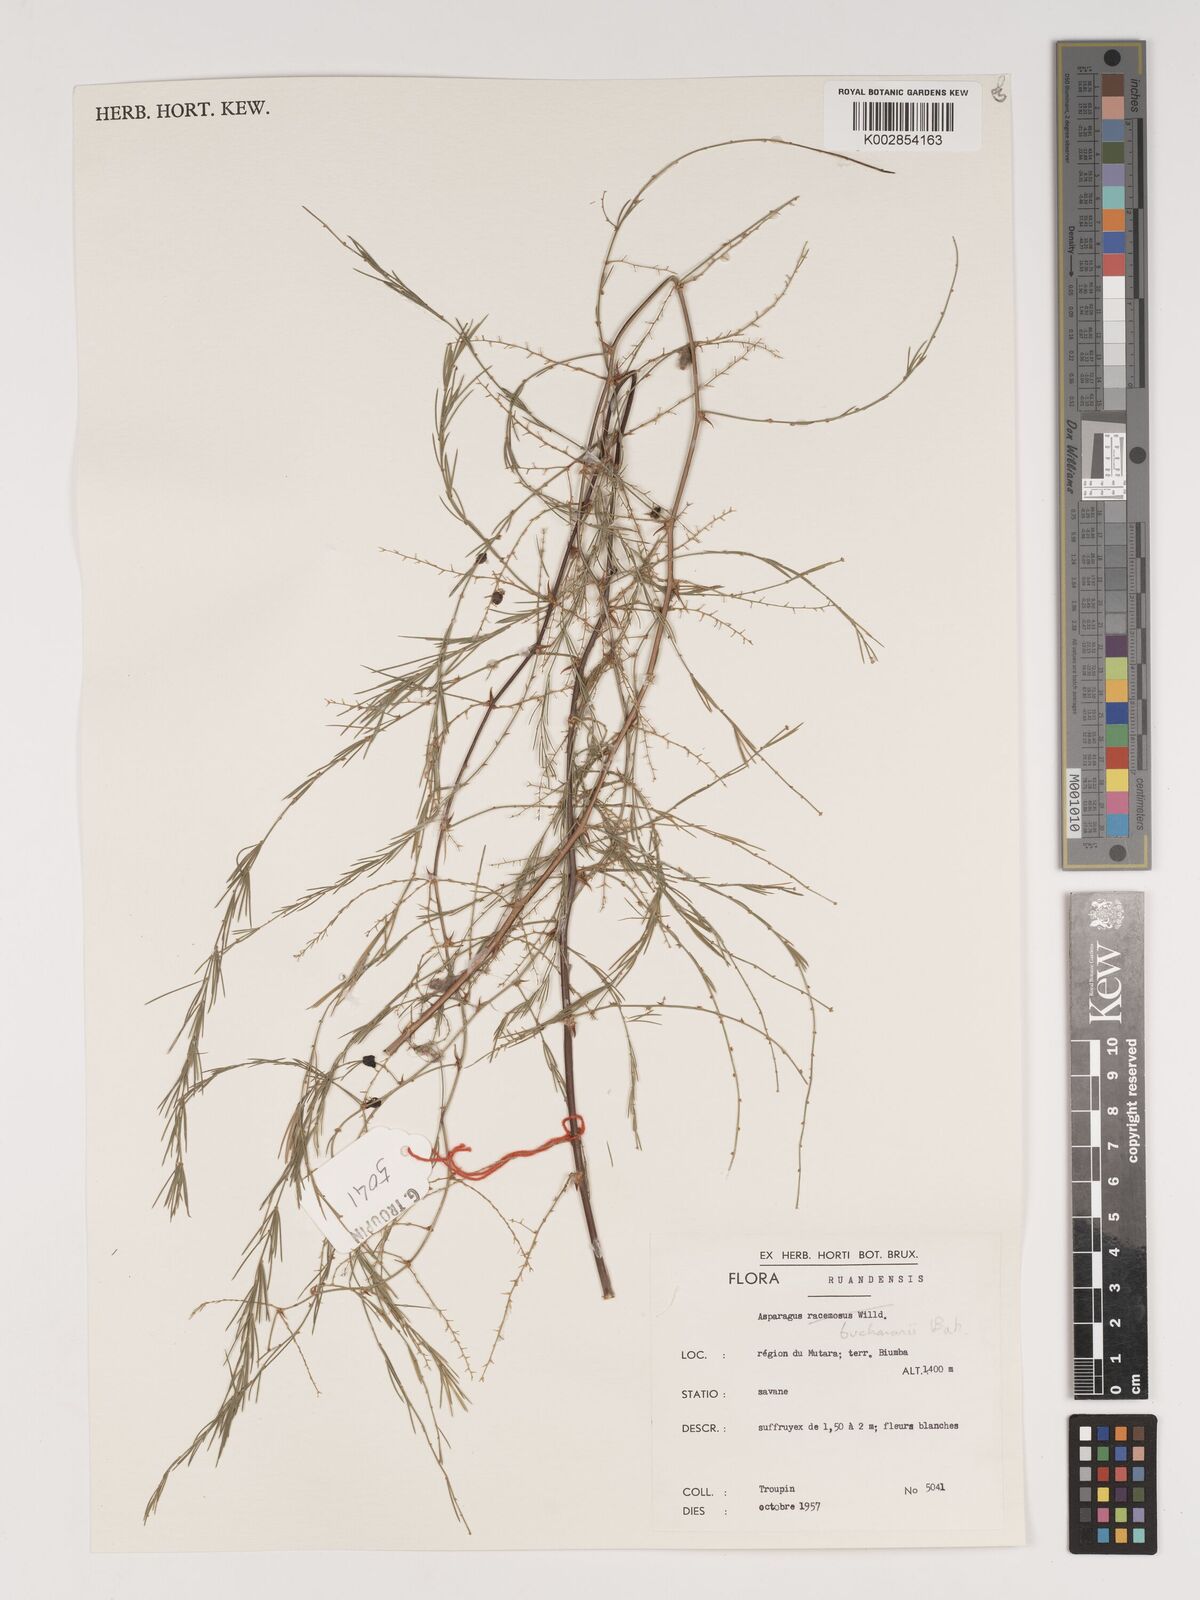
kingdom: Plantae
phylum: Tracheophyta
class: Liliopsida
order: Asparagales
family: Asparagaceae
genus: Asparagus
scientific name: Asparagus buchananii
